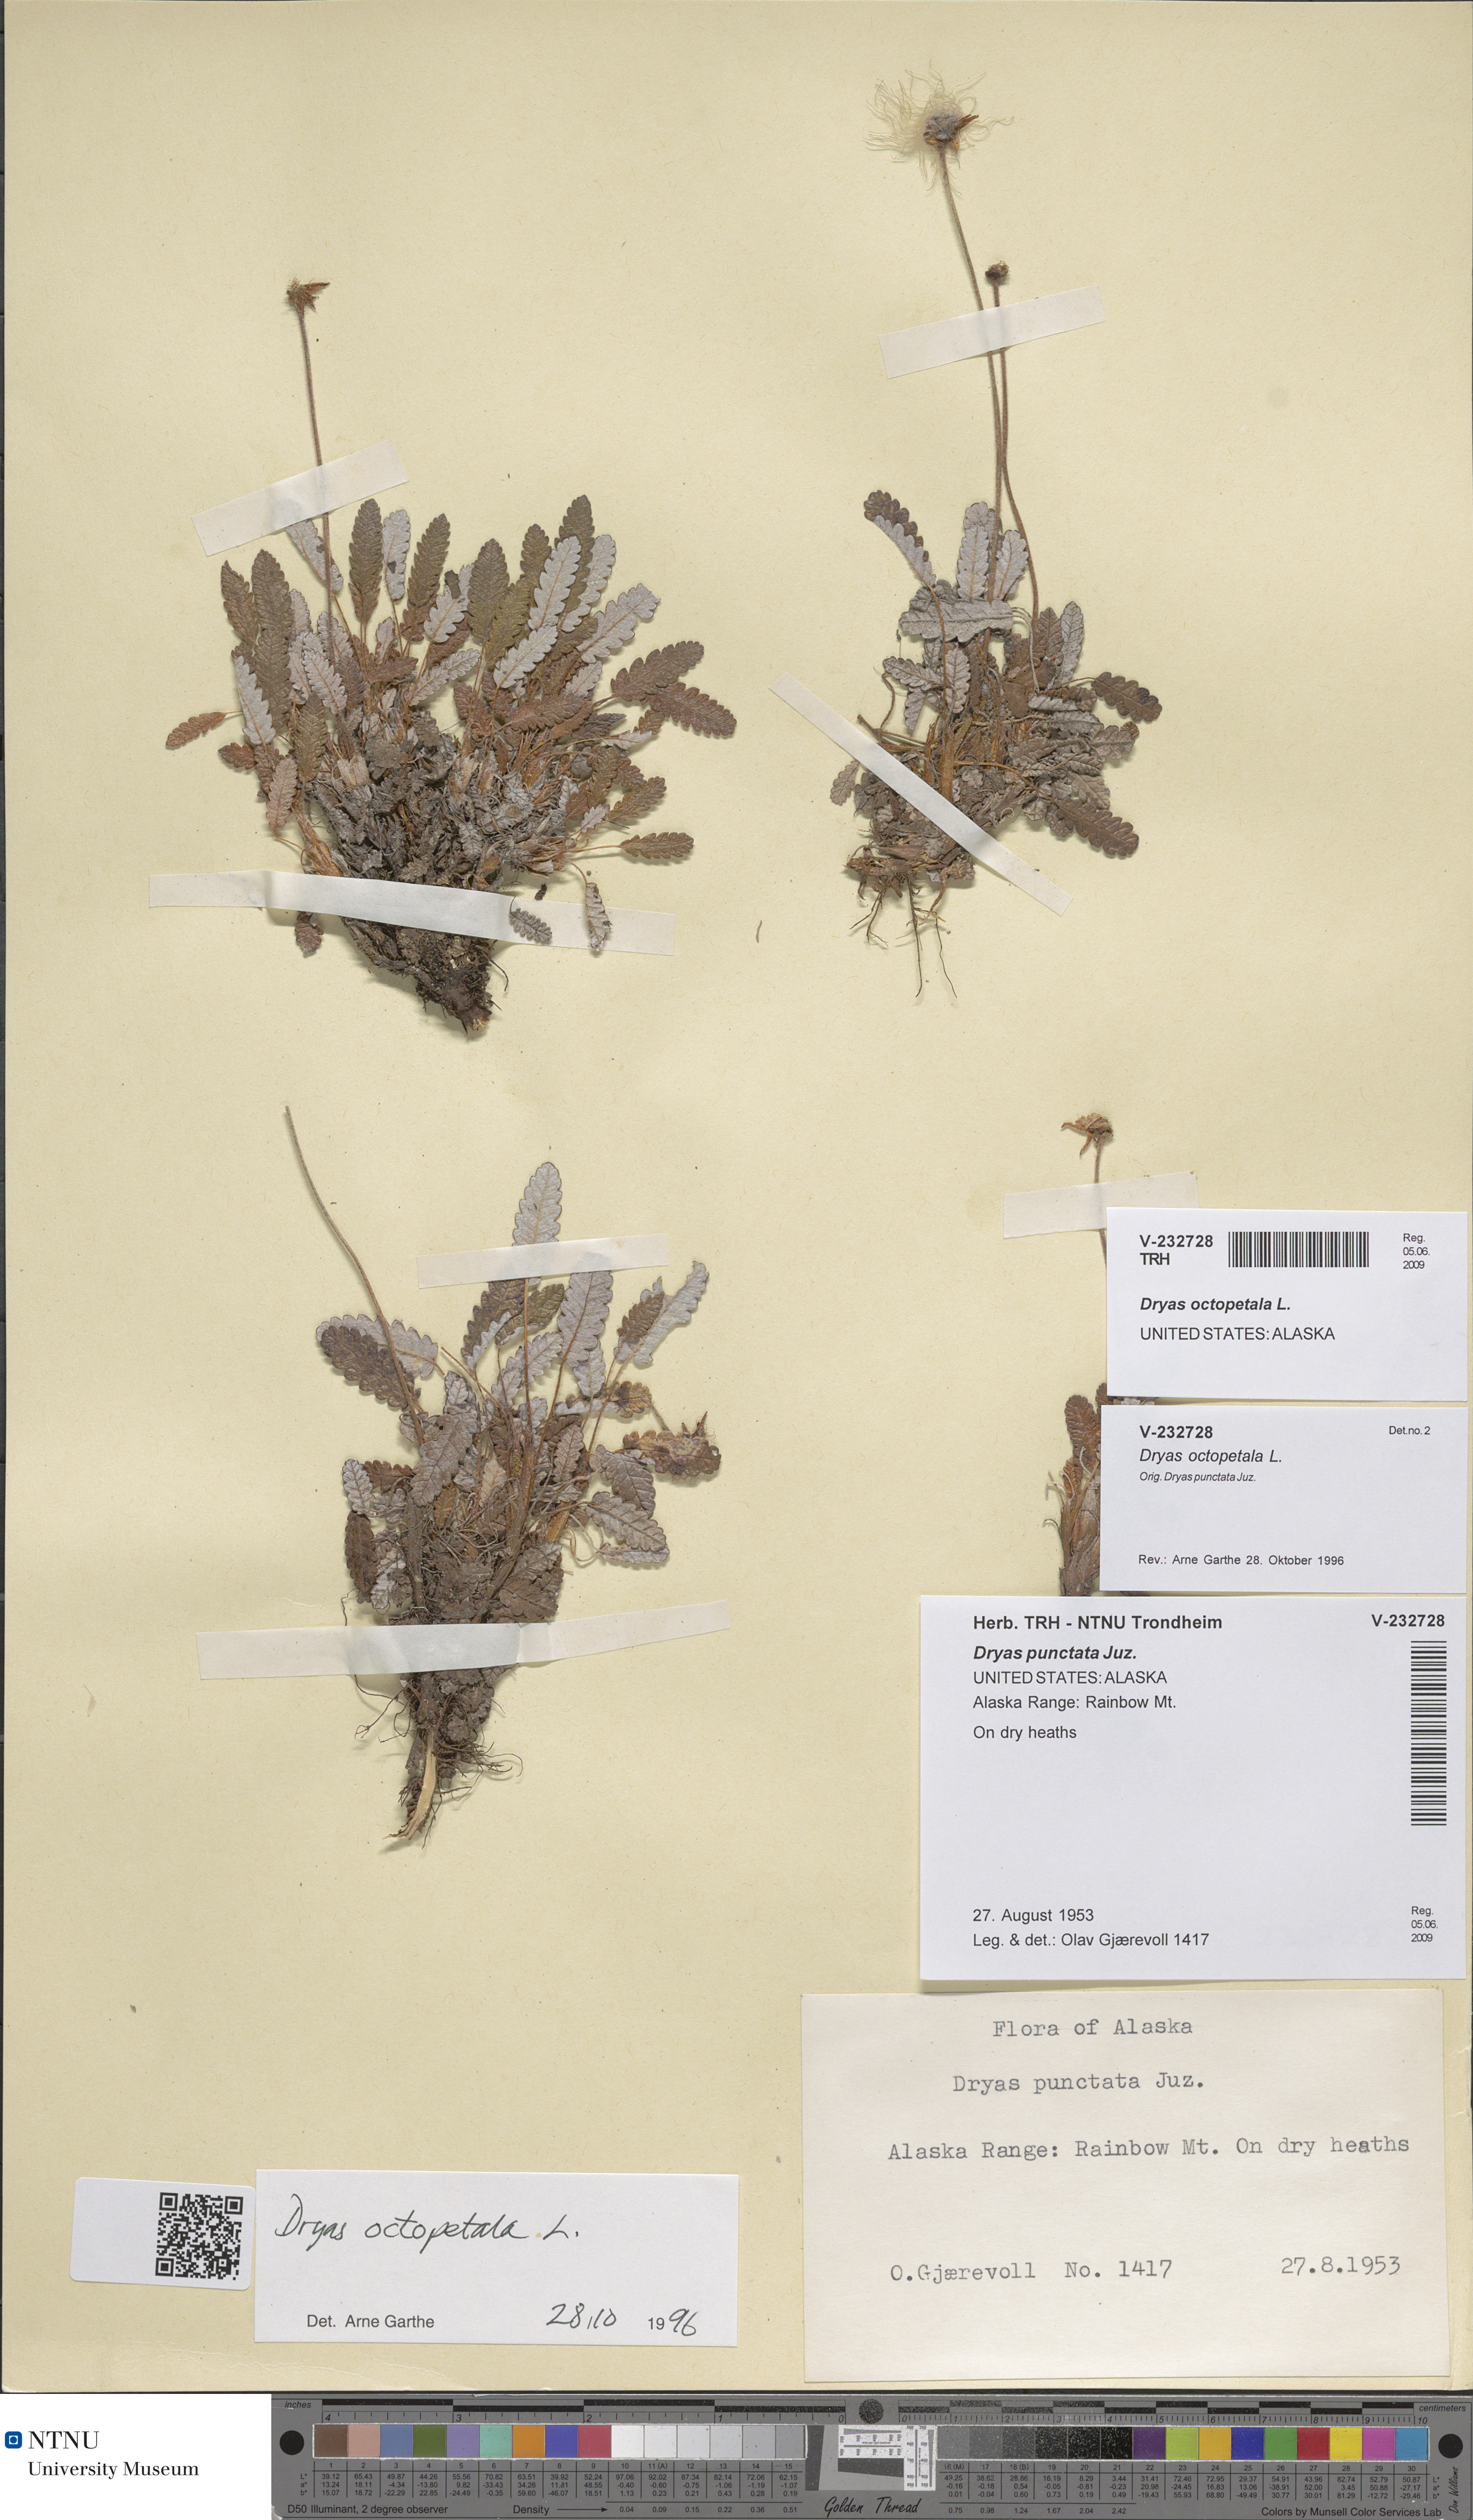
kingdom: Plantae
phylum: Tracheophyta
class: Magnoliopsida
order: Rosales
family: Rosaceae
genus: Dryas
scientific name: Dryas octopetala
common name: Eight-petal mountain-avens
